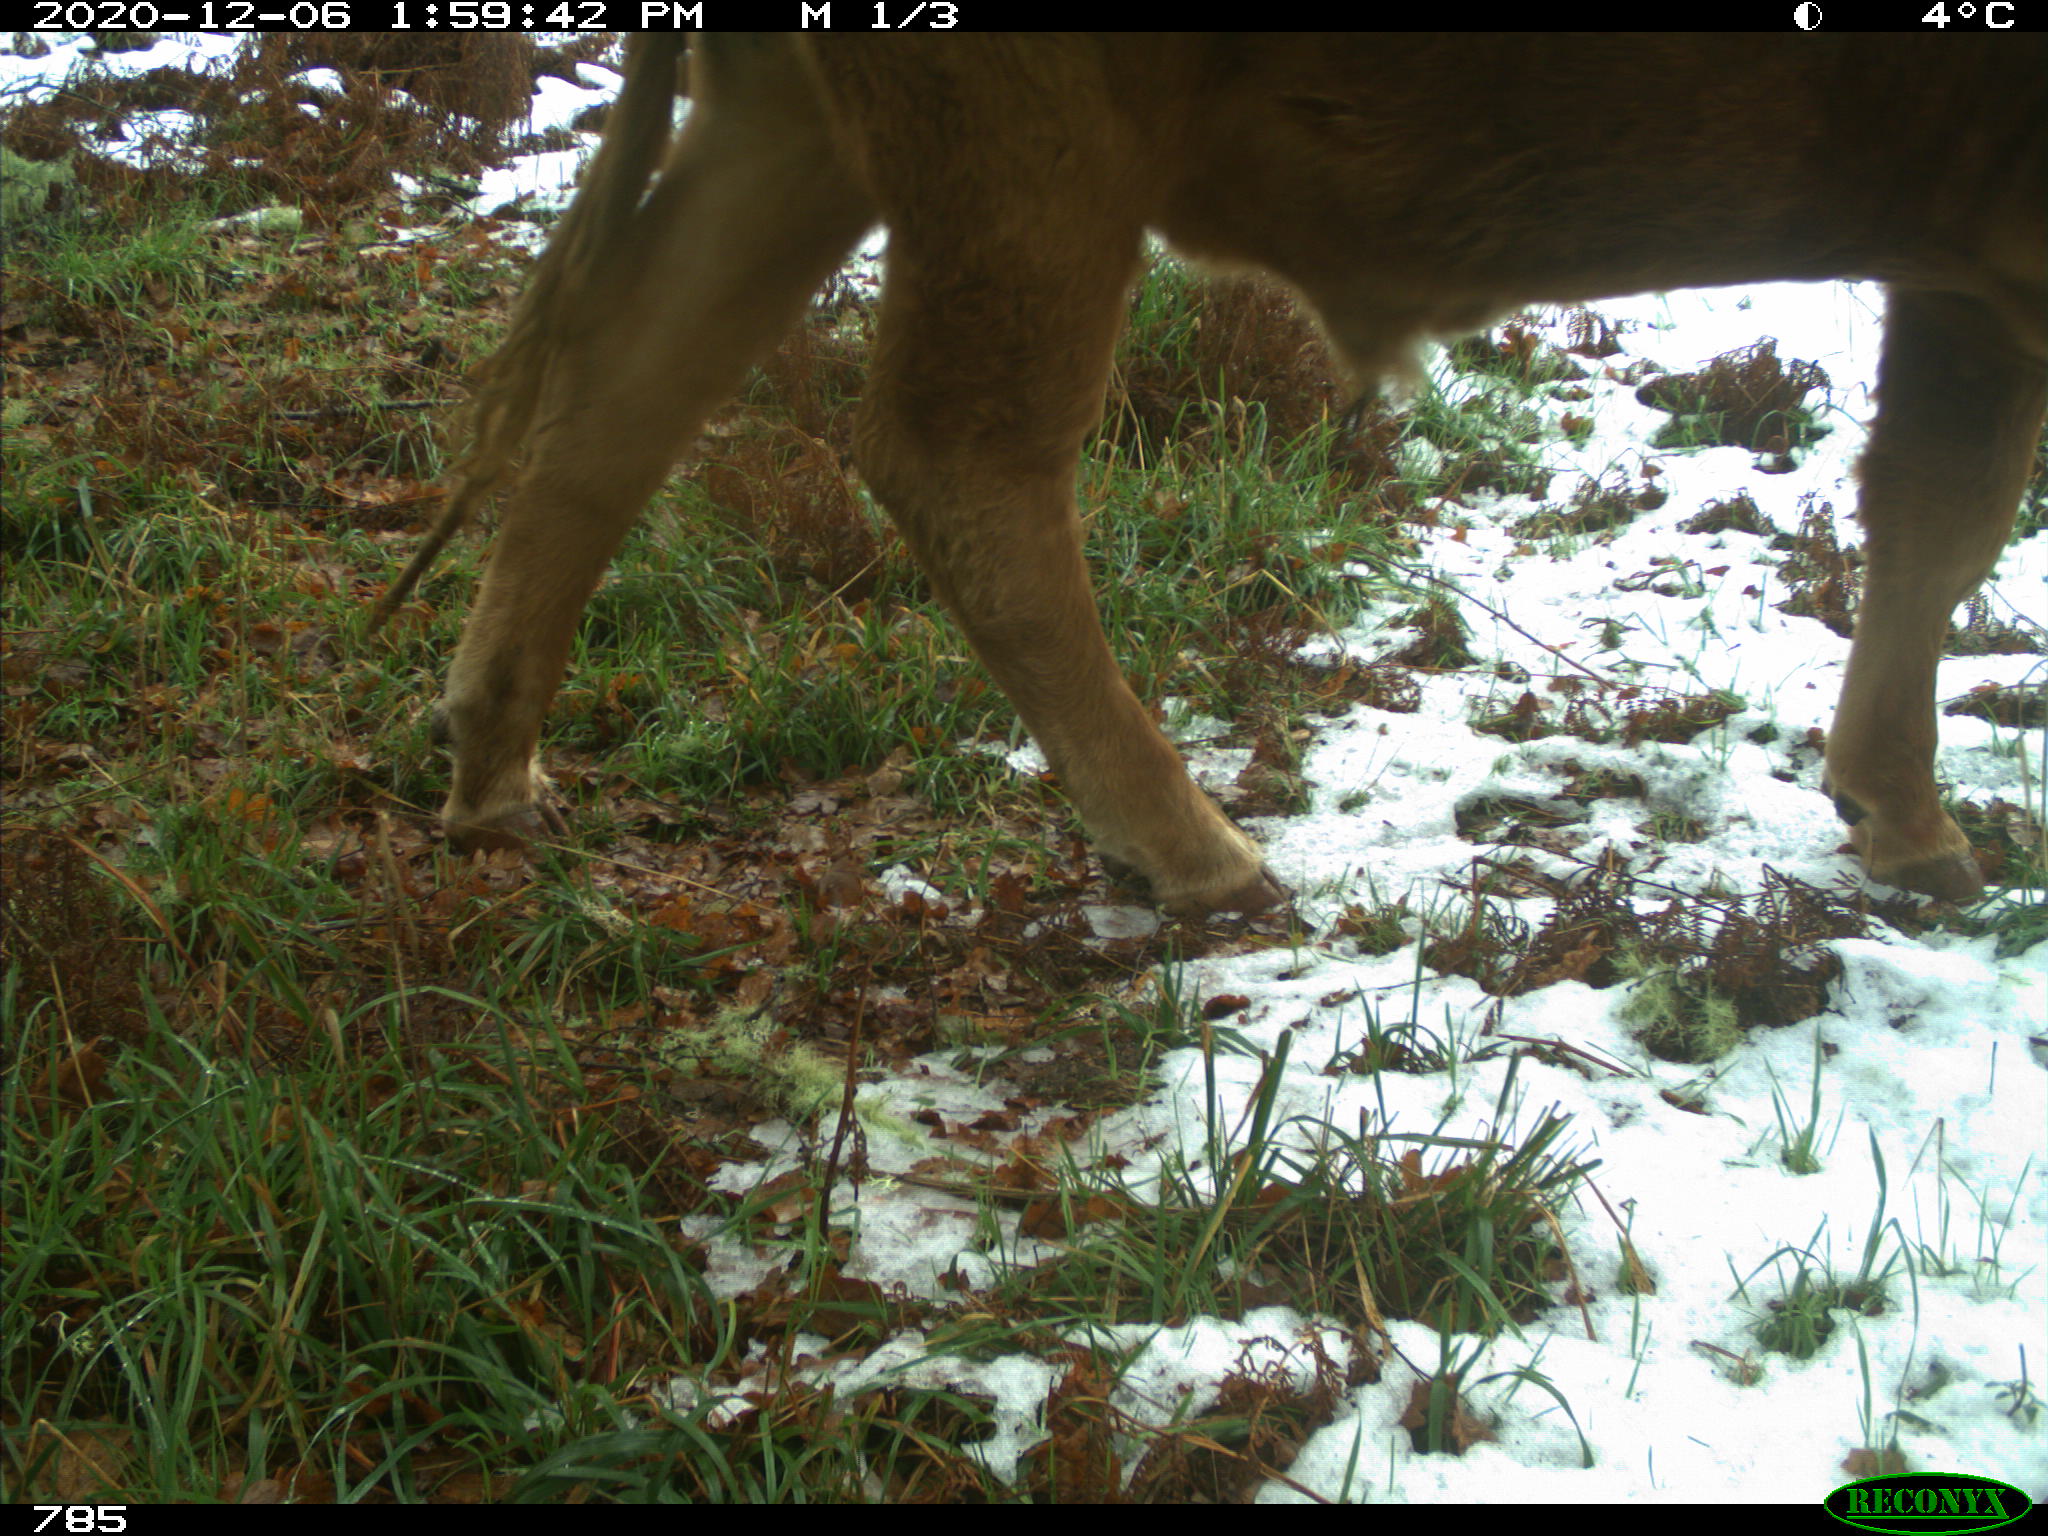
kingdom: Animalia
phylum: Chordata
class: Mammalia
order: Artiodactyla
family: Bovidae
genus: Bos
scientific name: Bos taurus
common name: Domesticated cattle
